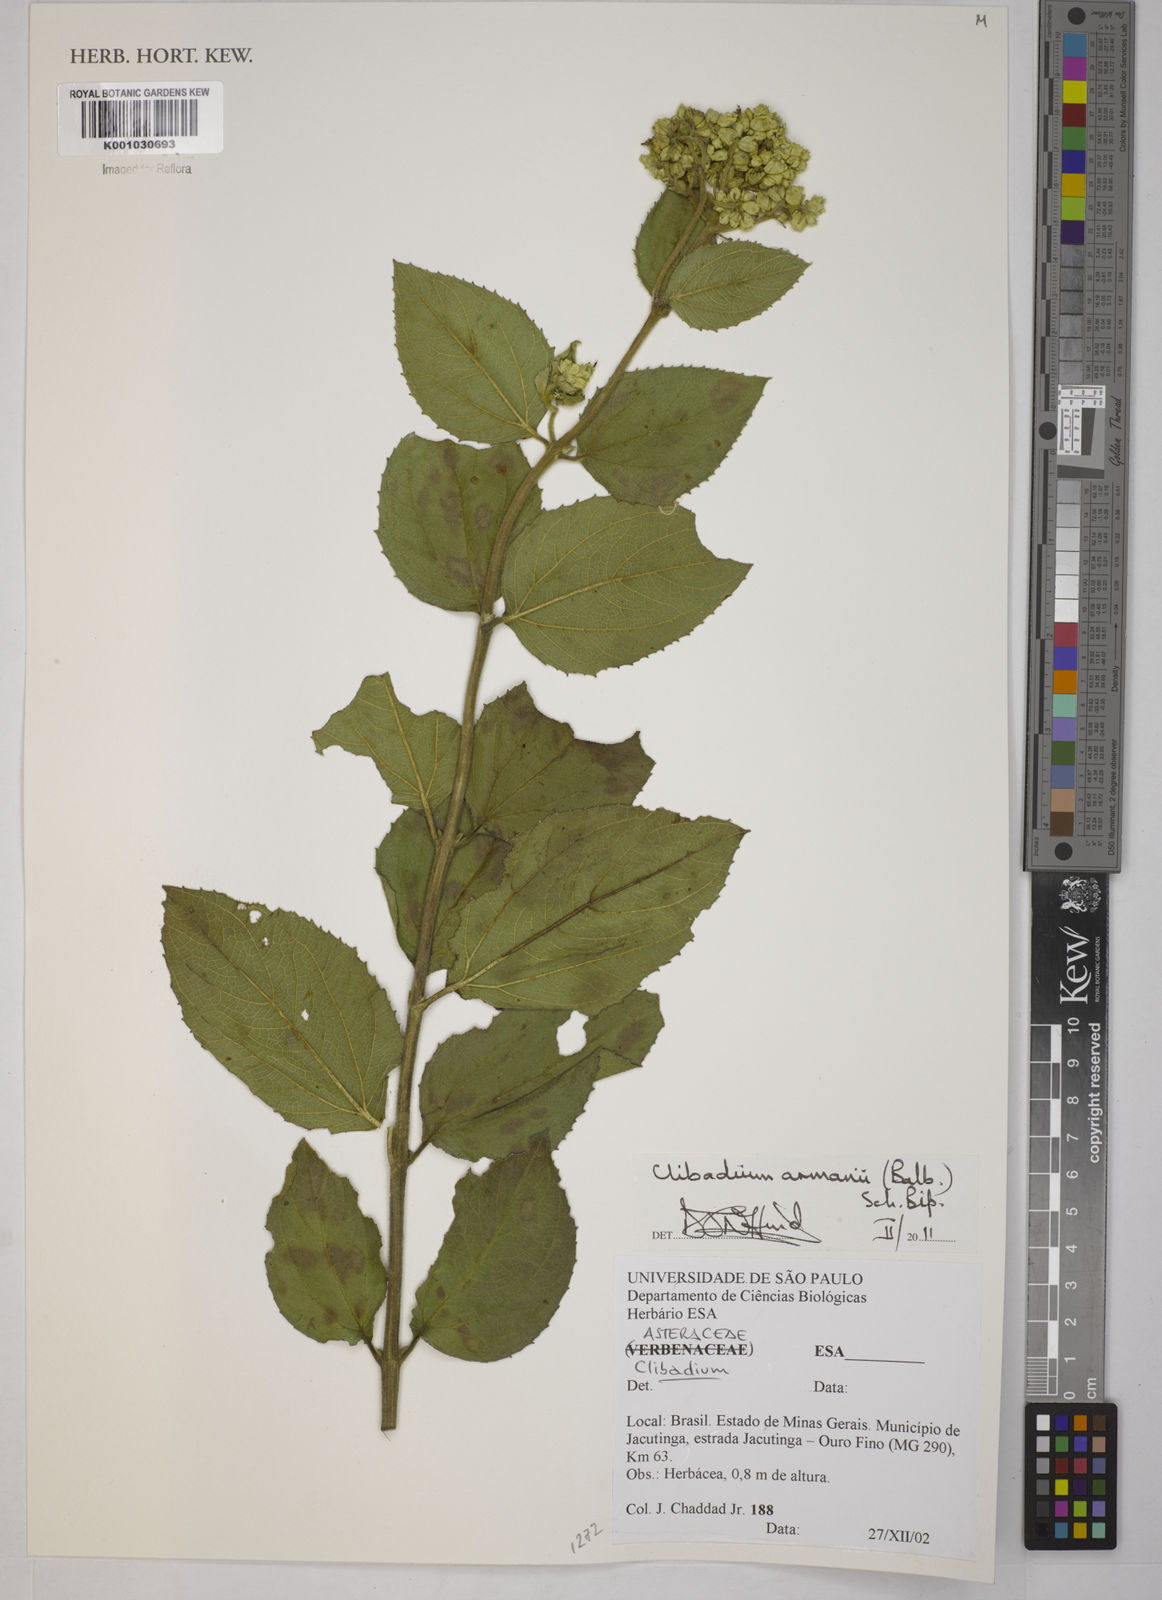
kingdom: Plantae
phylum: Tracheophyta
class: Magnoliopsida
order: Asterales
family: Asteraceae
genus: Clibadium
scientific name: Clibadium armanii
